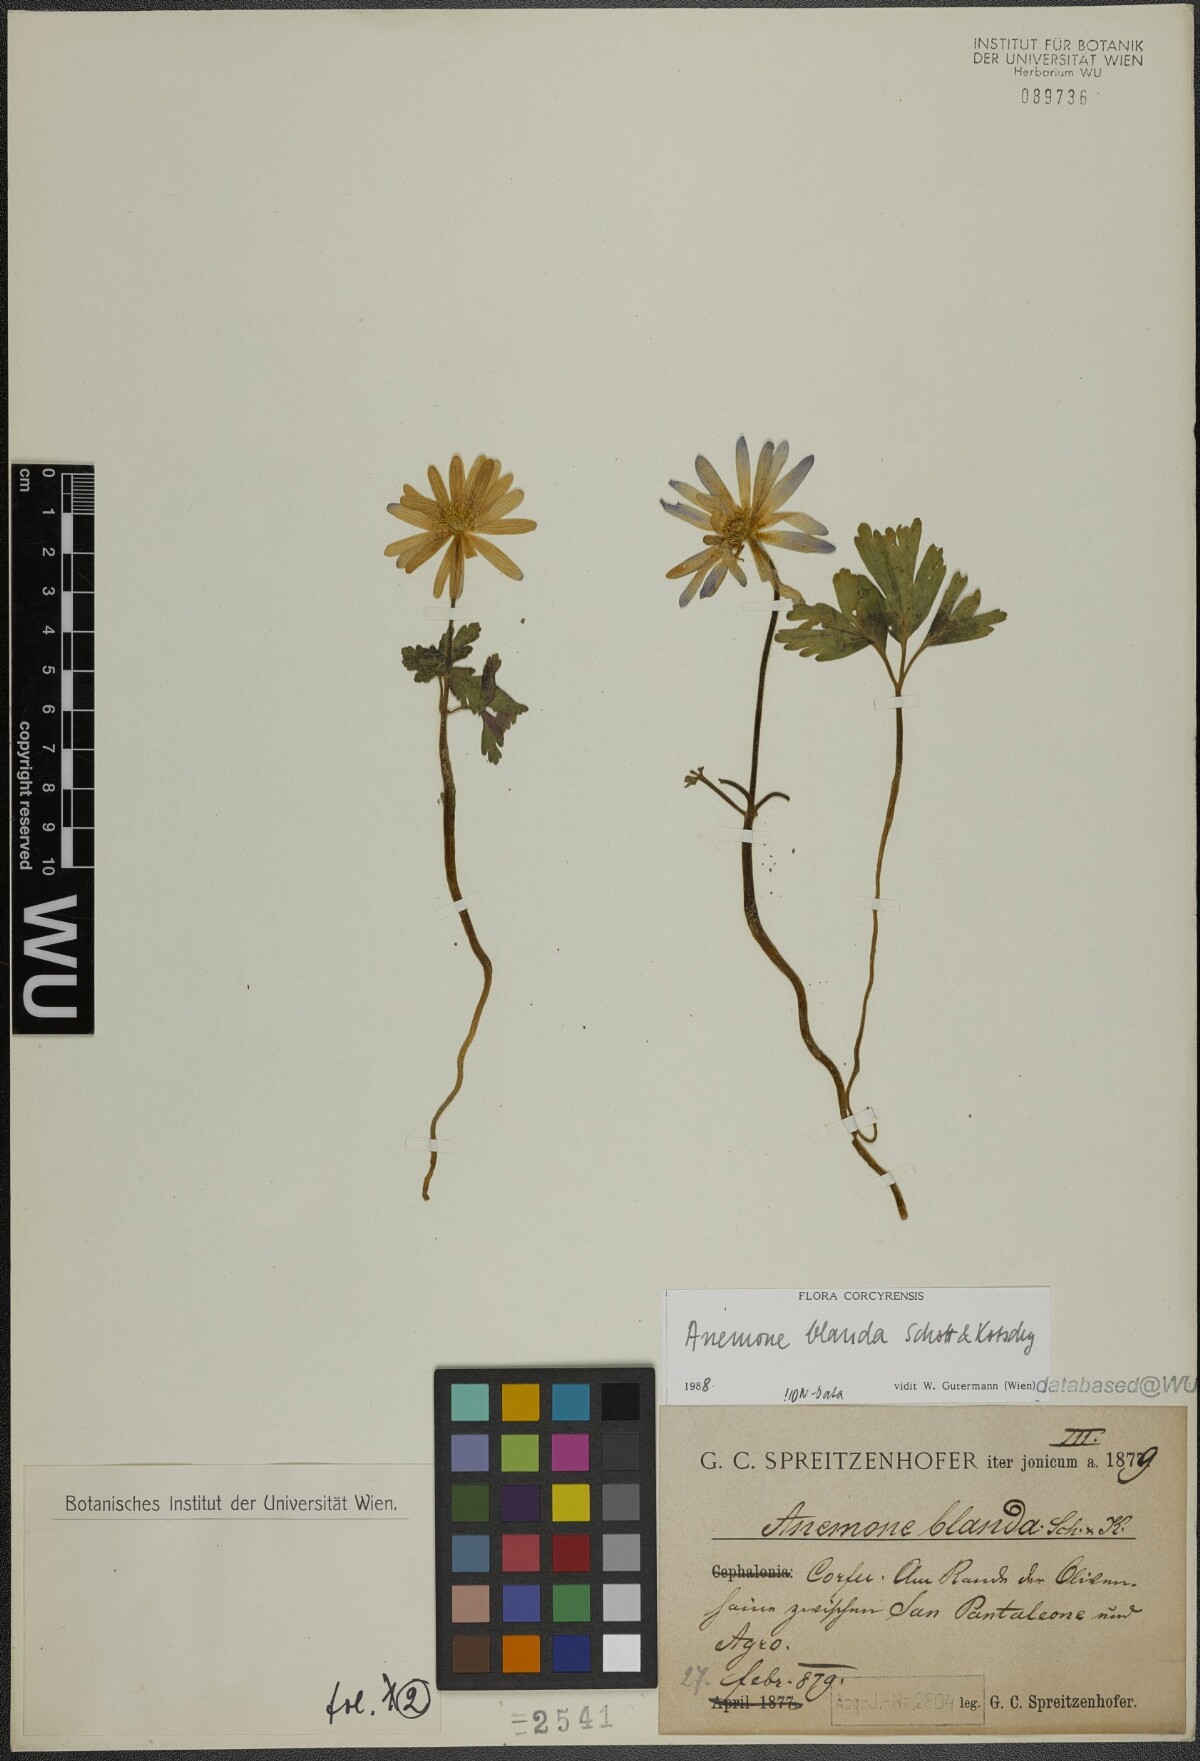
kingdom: Plantae
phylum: Tracheophyta
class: Magnoliopsida
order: Ranunculales
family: Ranunculaceae
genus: Anemone
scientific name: Anemone blanda
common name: Balkan anemone
